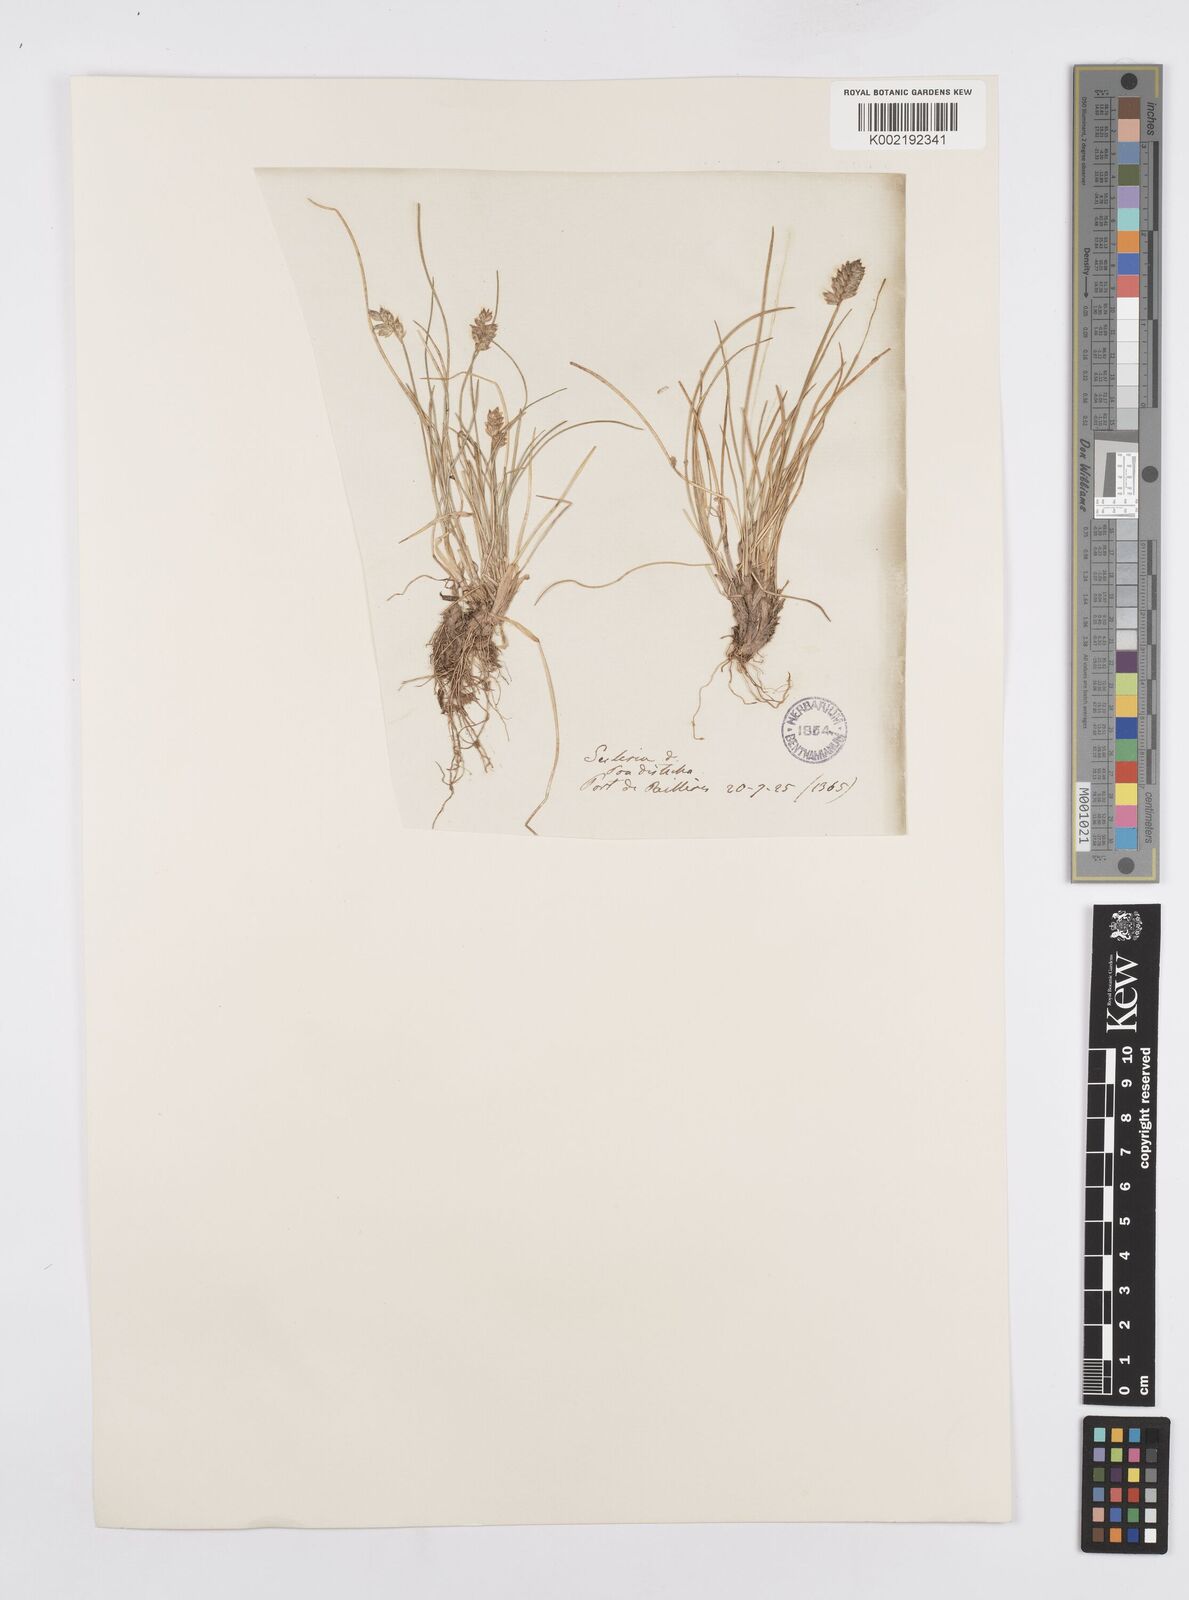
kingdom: Plantae
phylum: Tracheophyta
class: Liliopsida
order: Poales
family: Poaceae
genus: Oreochloa
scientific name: Oreochloa elegans
